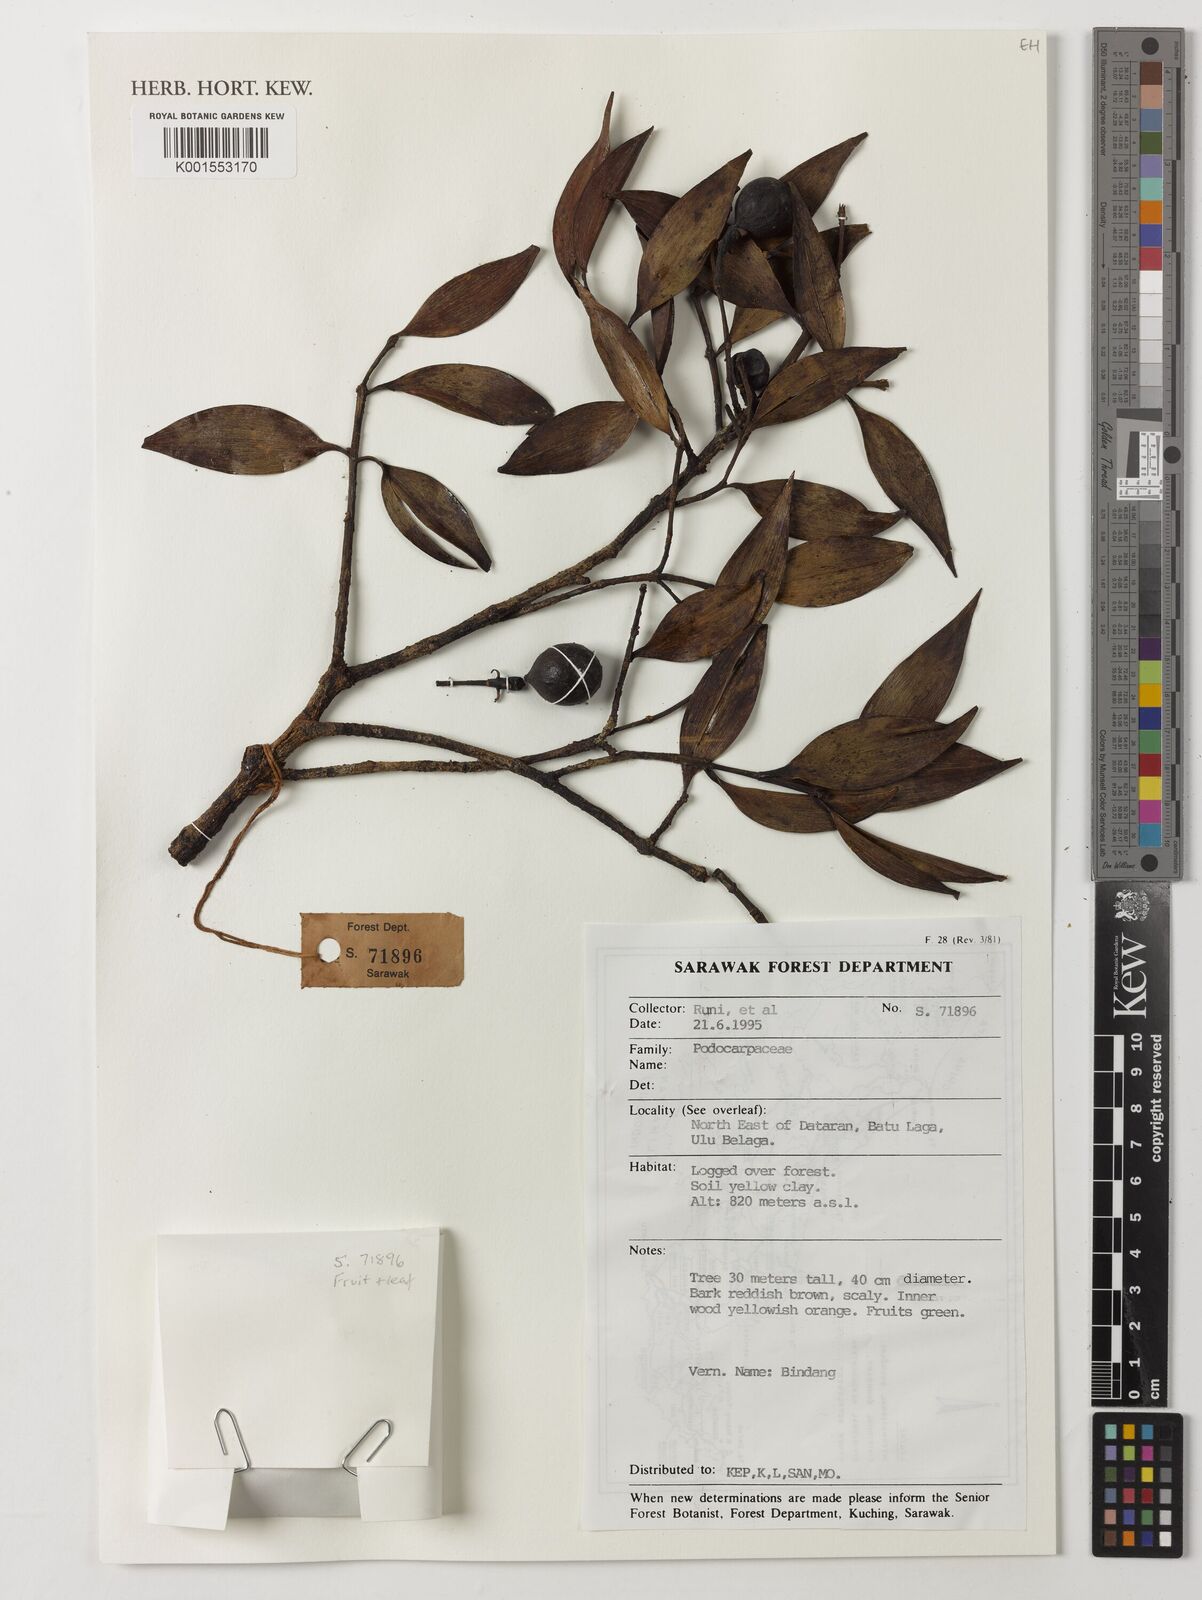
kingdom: Plantae
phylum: Tracheophyta
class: Pinopsida
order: Pinales
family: Podocarpaceae
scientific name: Podocarpaceae
